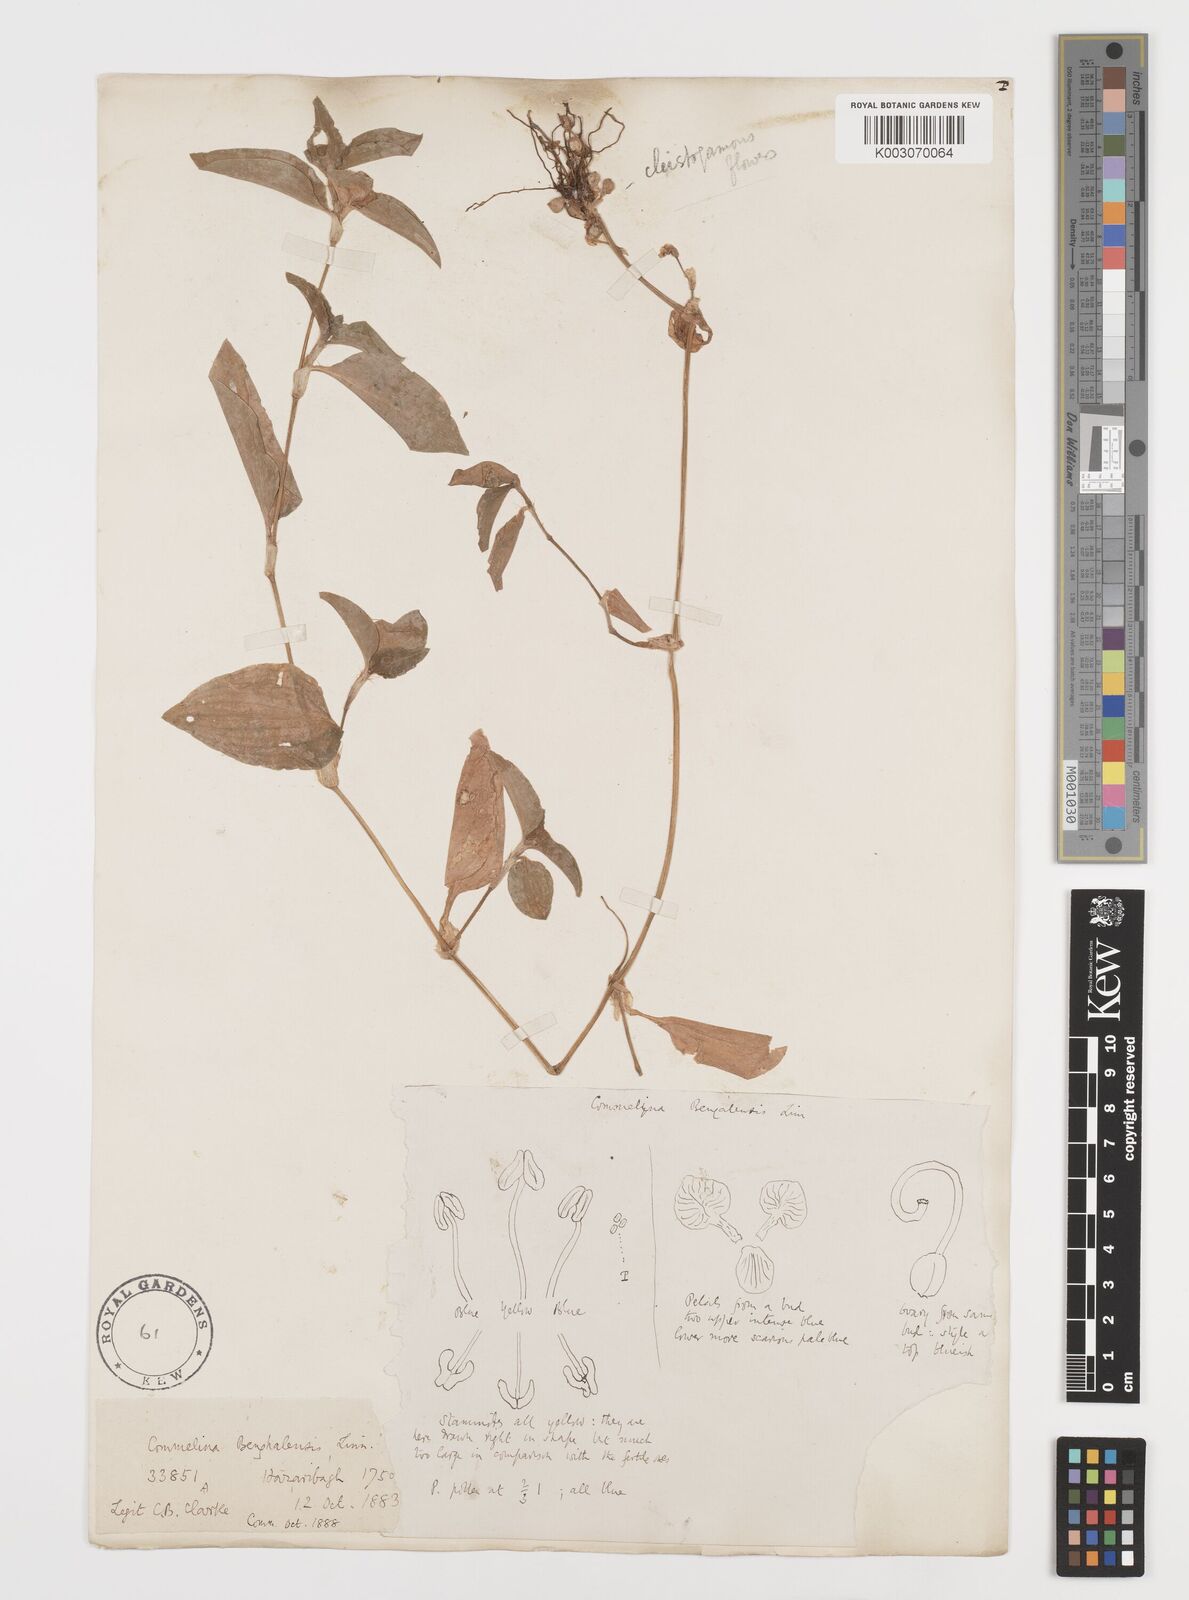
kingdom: Plantae
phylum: Tracheophyta
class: Liliopsida
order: Commelinales
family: Commelinaceae
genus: Commelina
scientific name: Commelina benghalensis
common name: Jio
